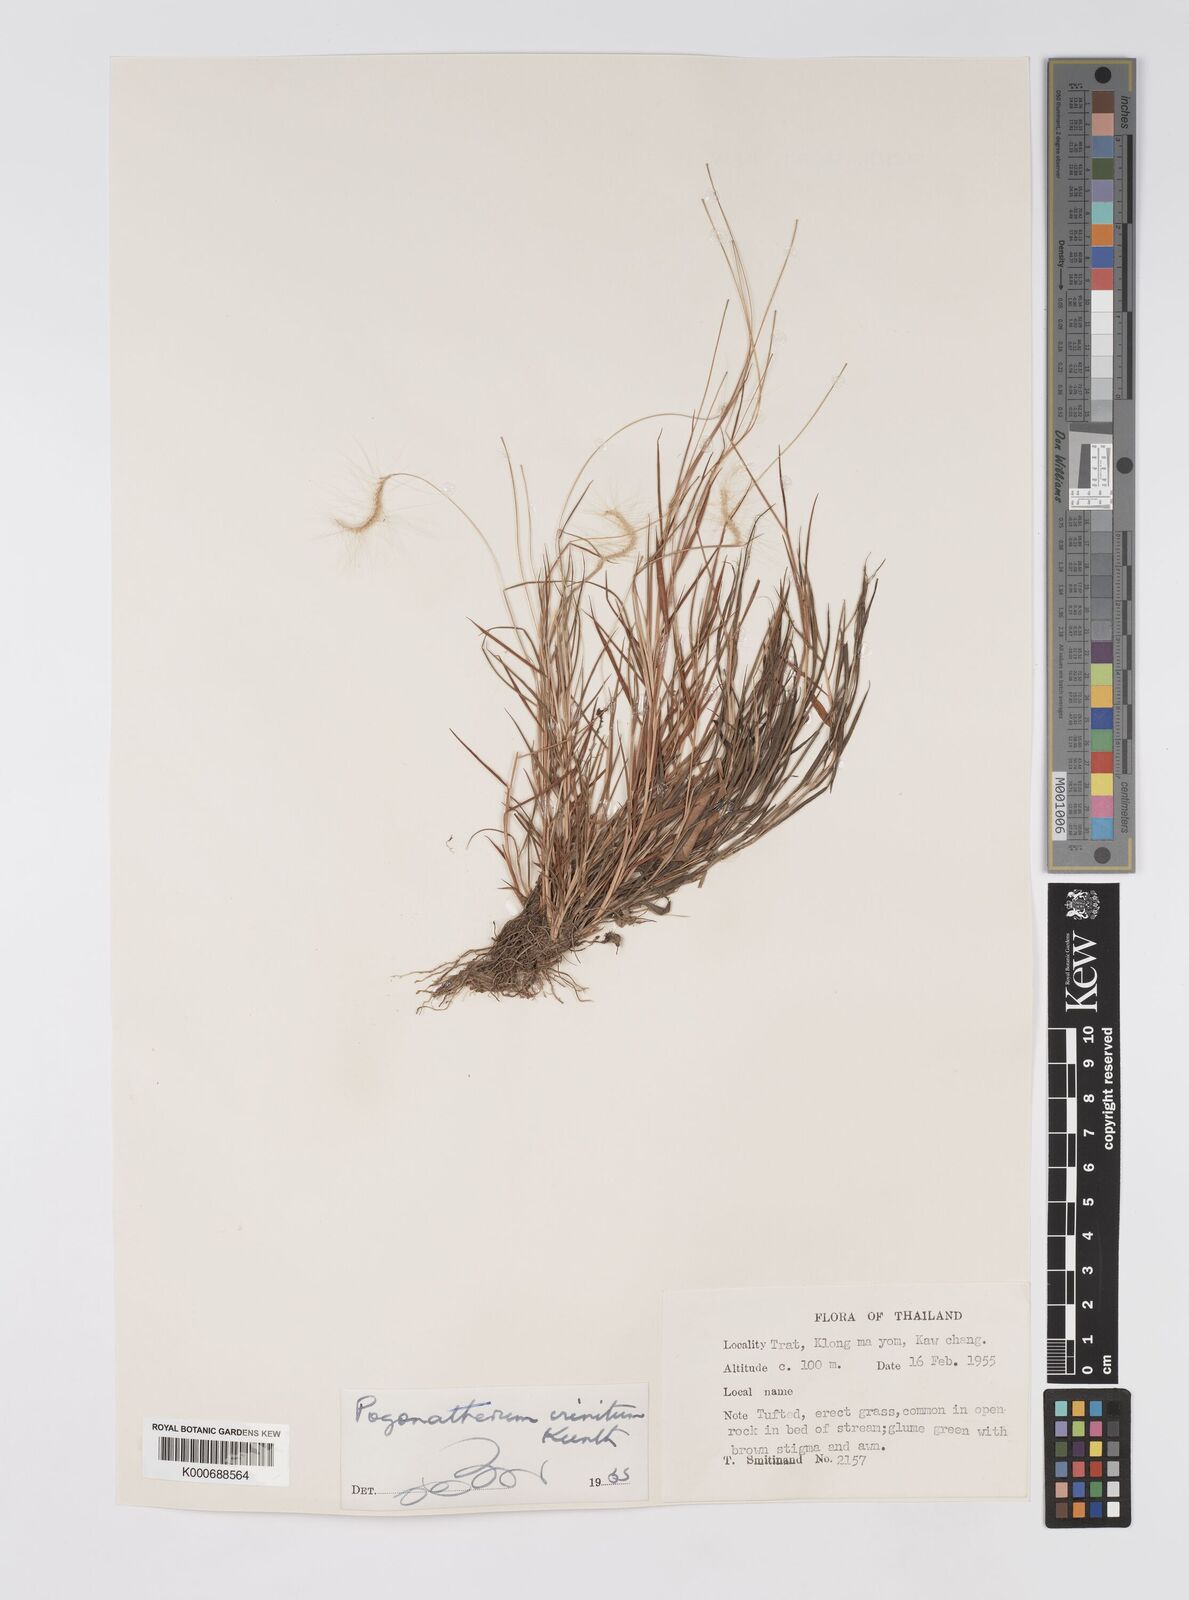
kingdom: Plantae
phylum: Tracheophyta
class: Liliopsida
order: Poales
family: Poaceae
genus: Pogonatherum
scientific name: Pogonatherum crinitum
